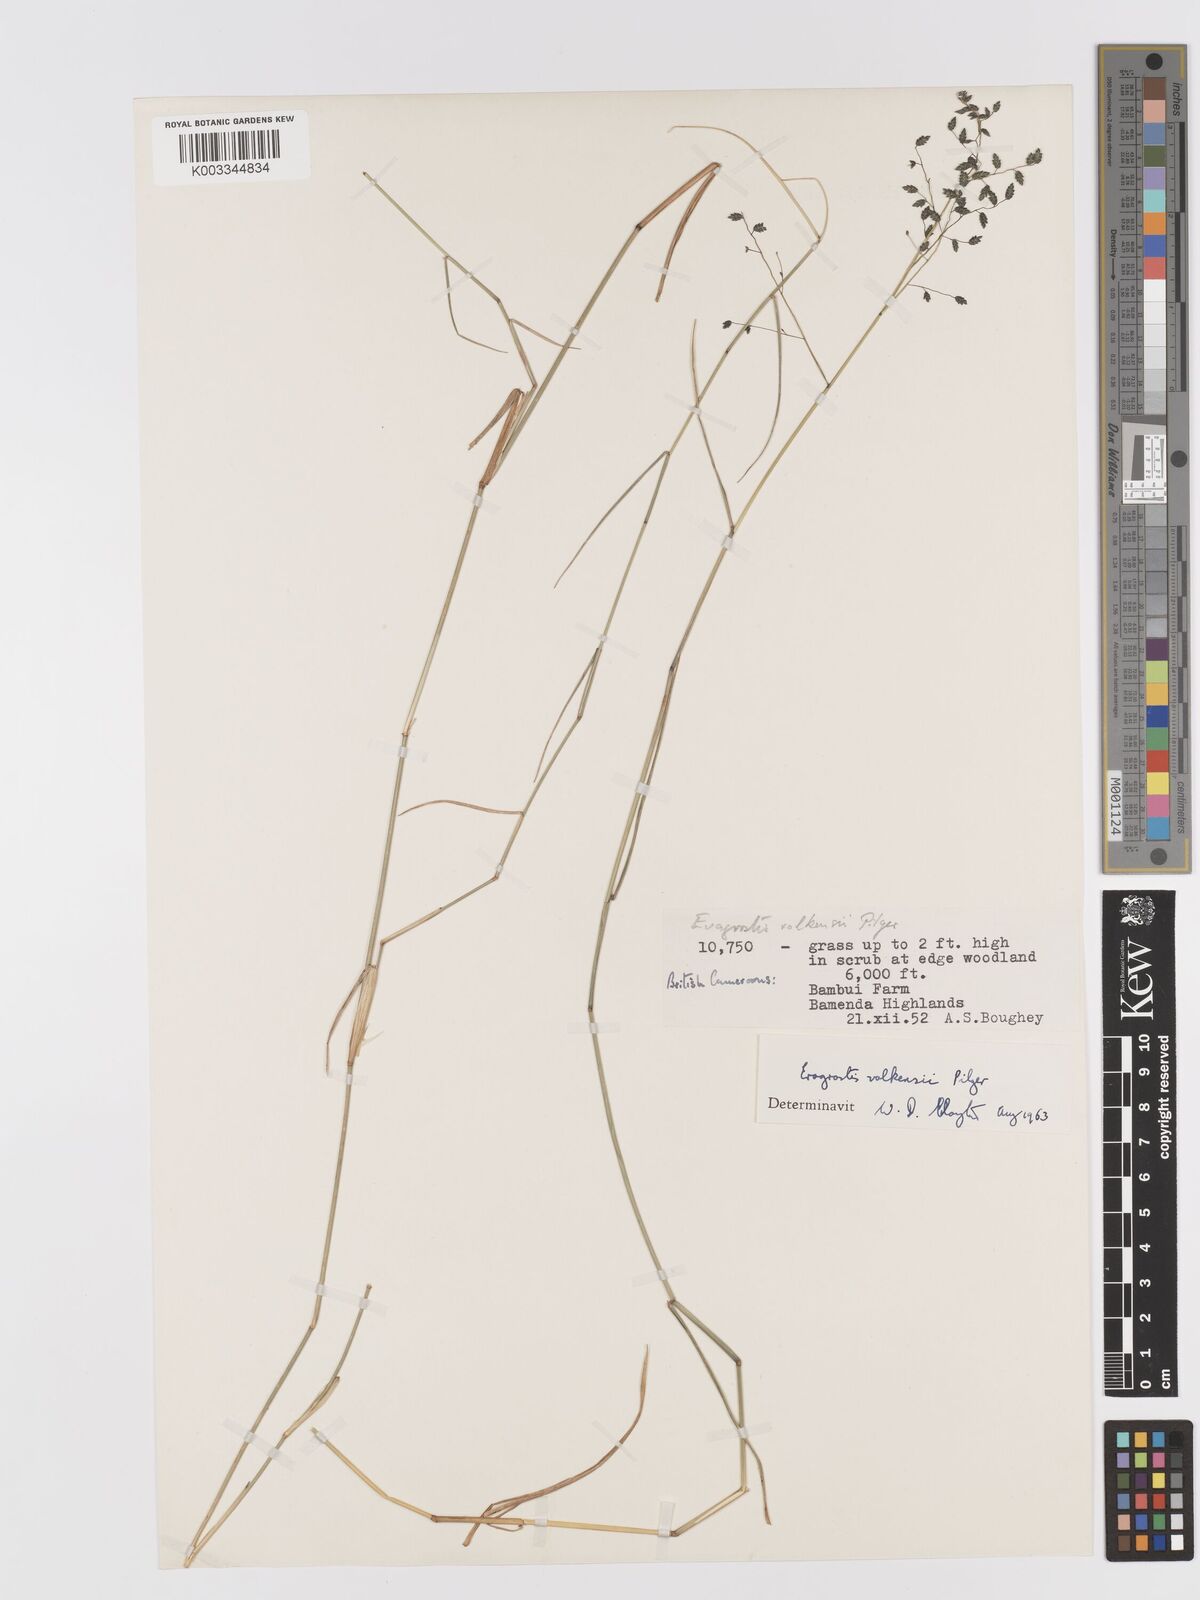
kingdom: Plantae
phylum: Tracheophyta
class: Liliopsida
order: Poales
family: Poaceae
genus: Eragrostis
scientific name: Eragrostis volkensii
